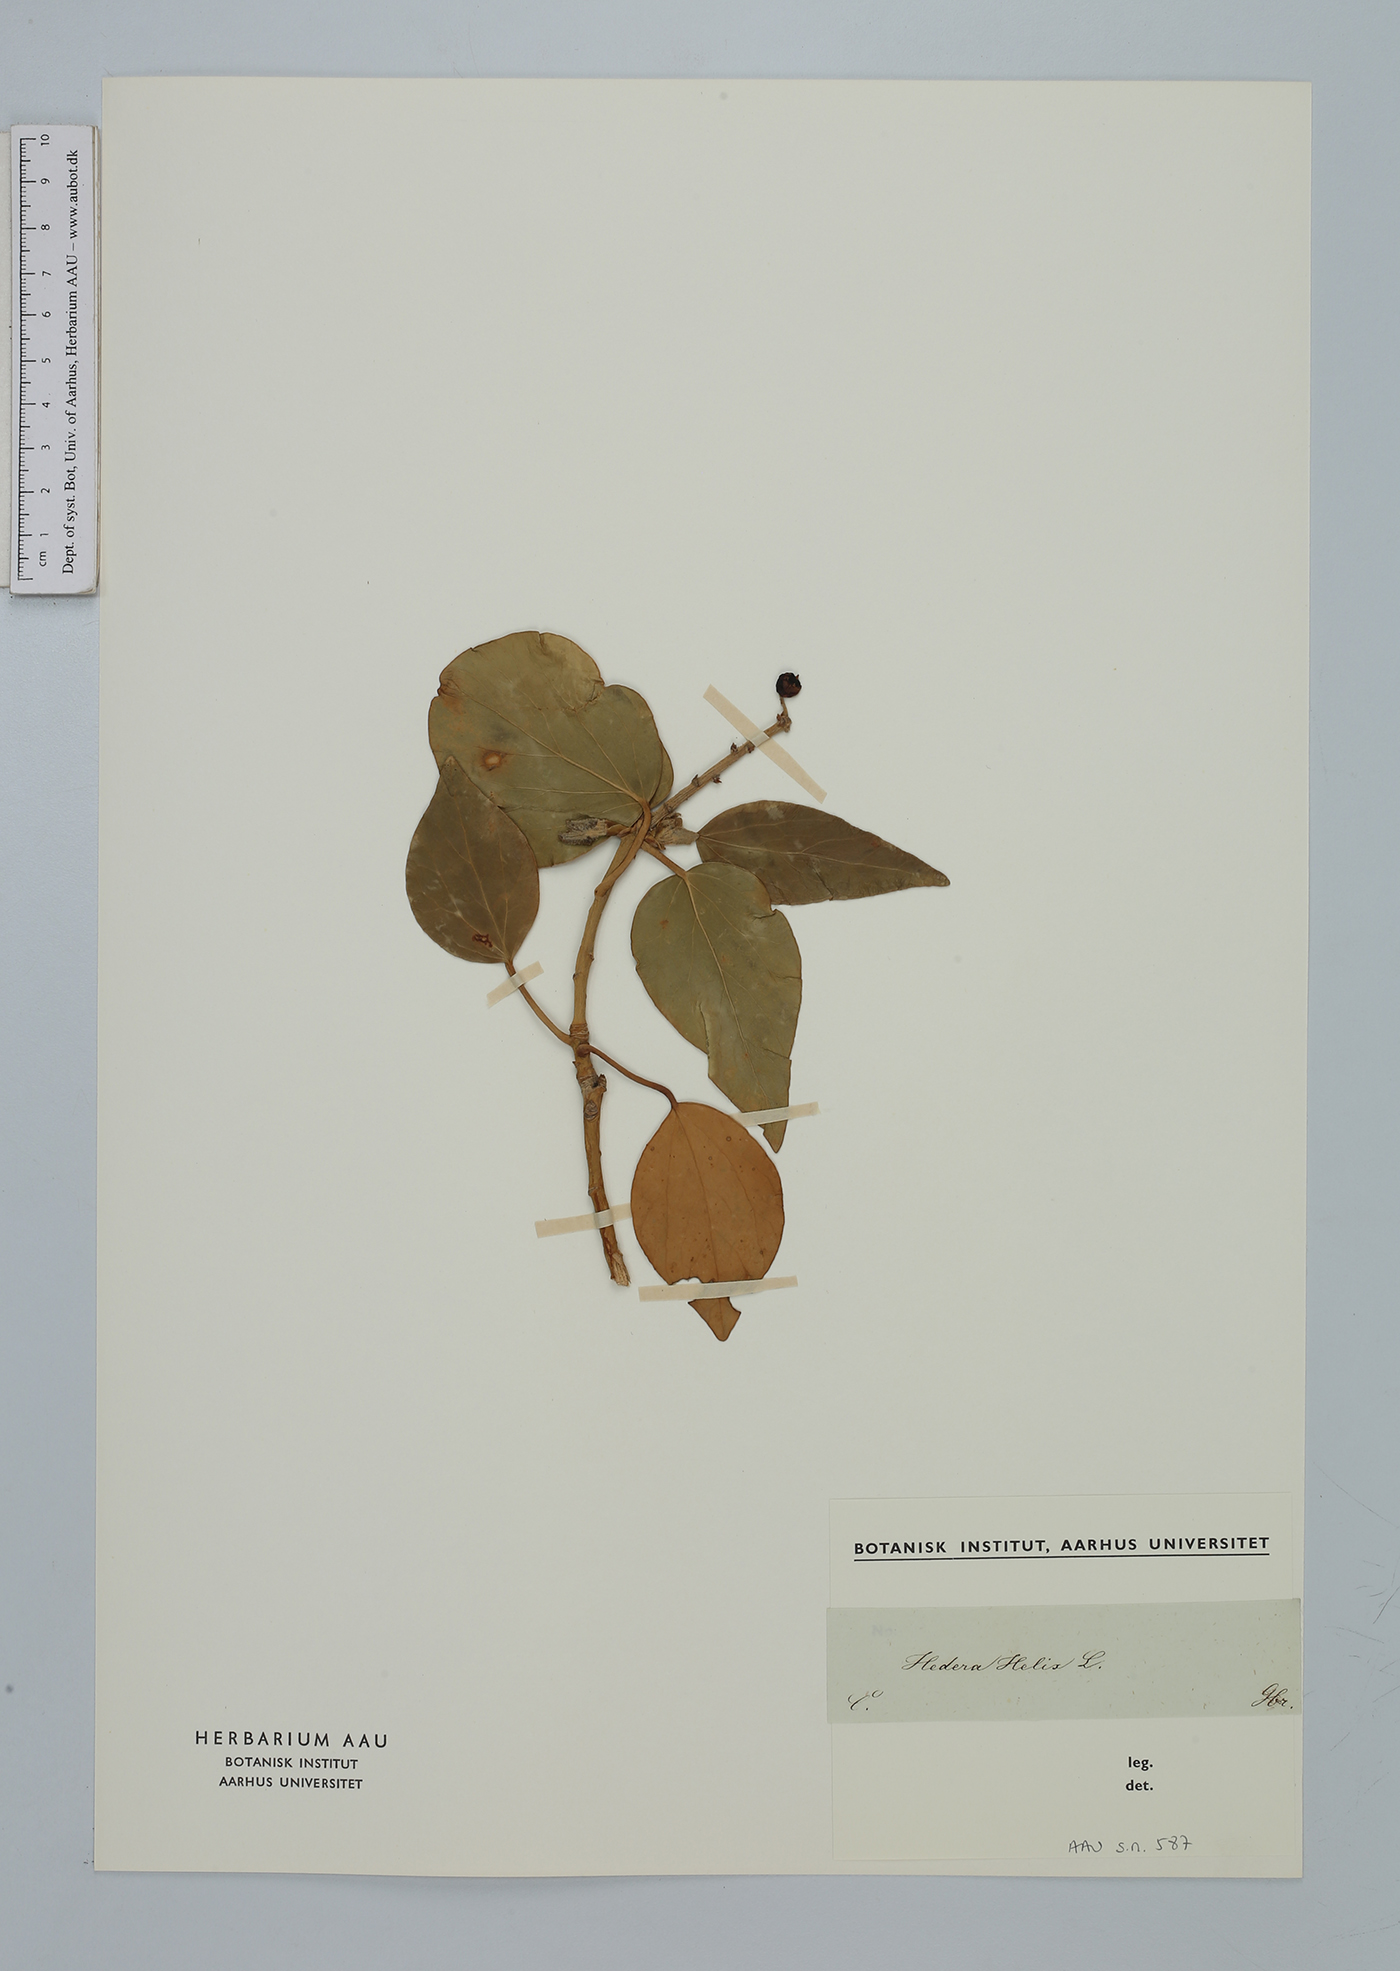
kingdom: Plantae
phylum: Tracheophyta
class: Magnoliopsida
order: Apiales
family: Araliaceae
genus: Hedera
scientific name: Hedera helix
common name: Ivy
